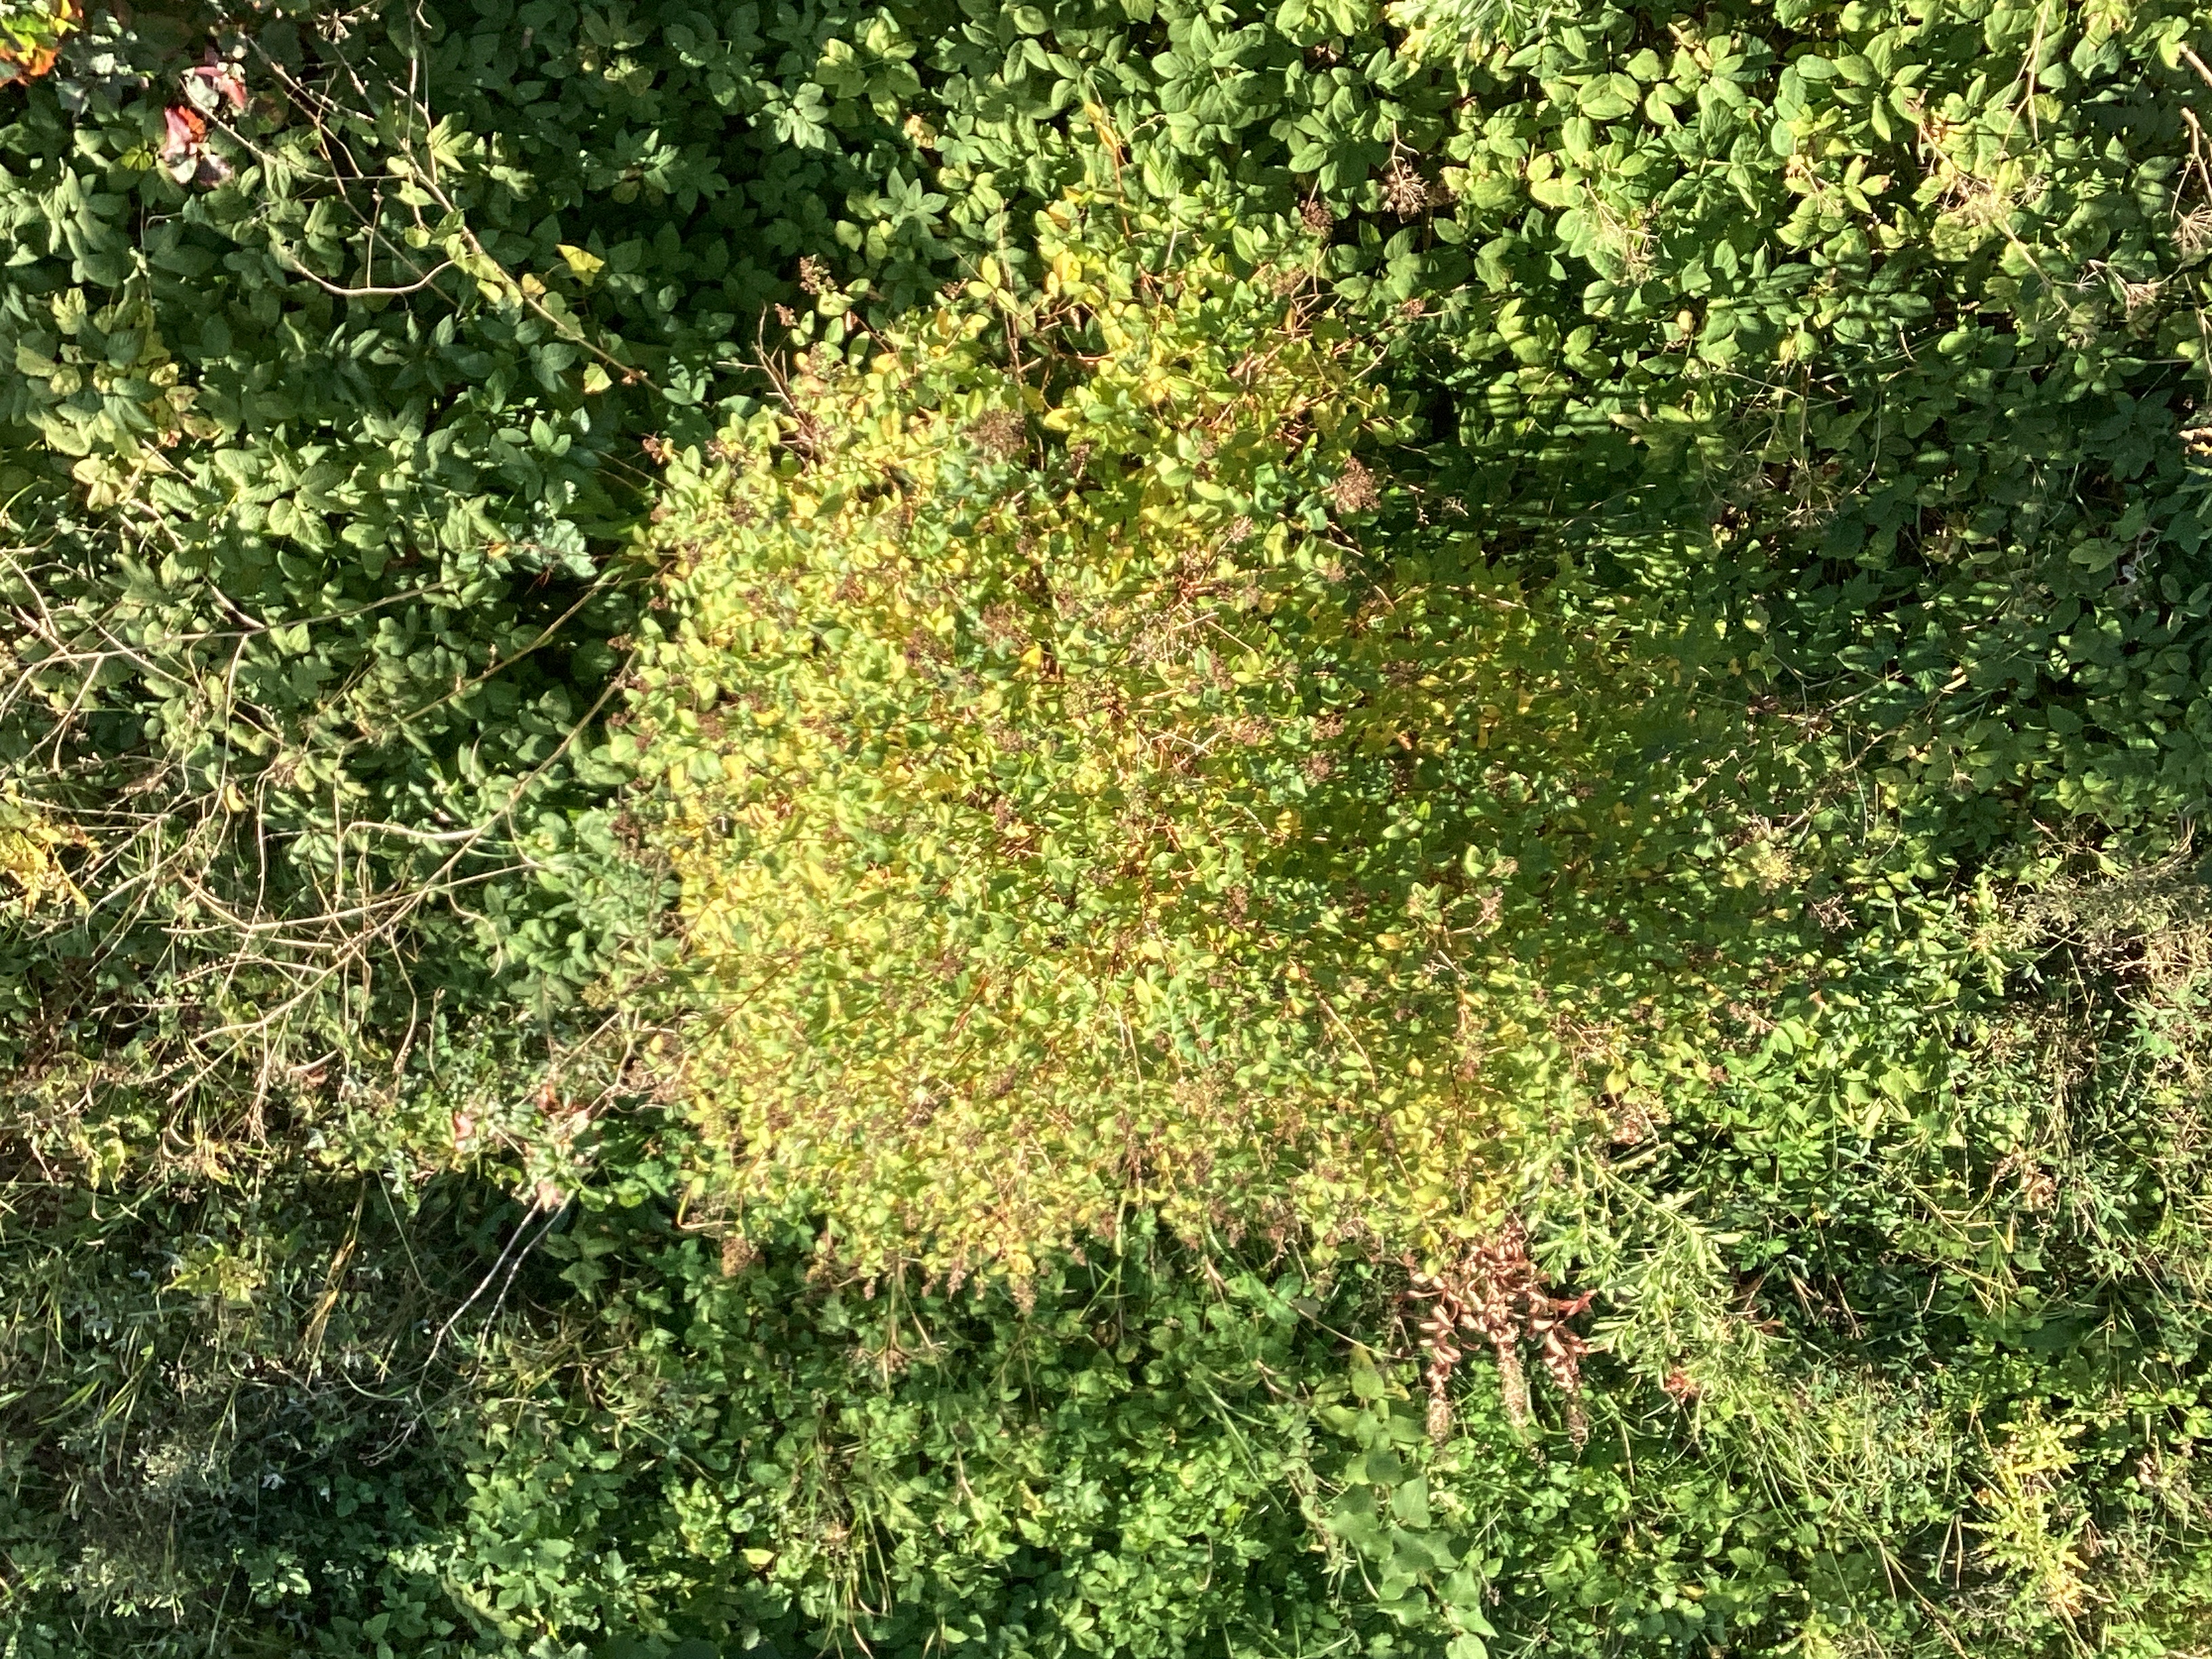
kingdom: Plantae
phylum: Tracheophyta
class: Magnoliopsida
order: Rosales
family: Rosaceae
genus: Spiraea
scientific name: Spiraea salicifolia
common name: hekkspirea
